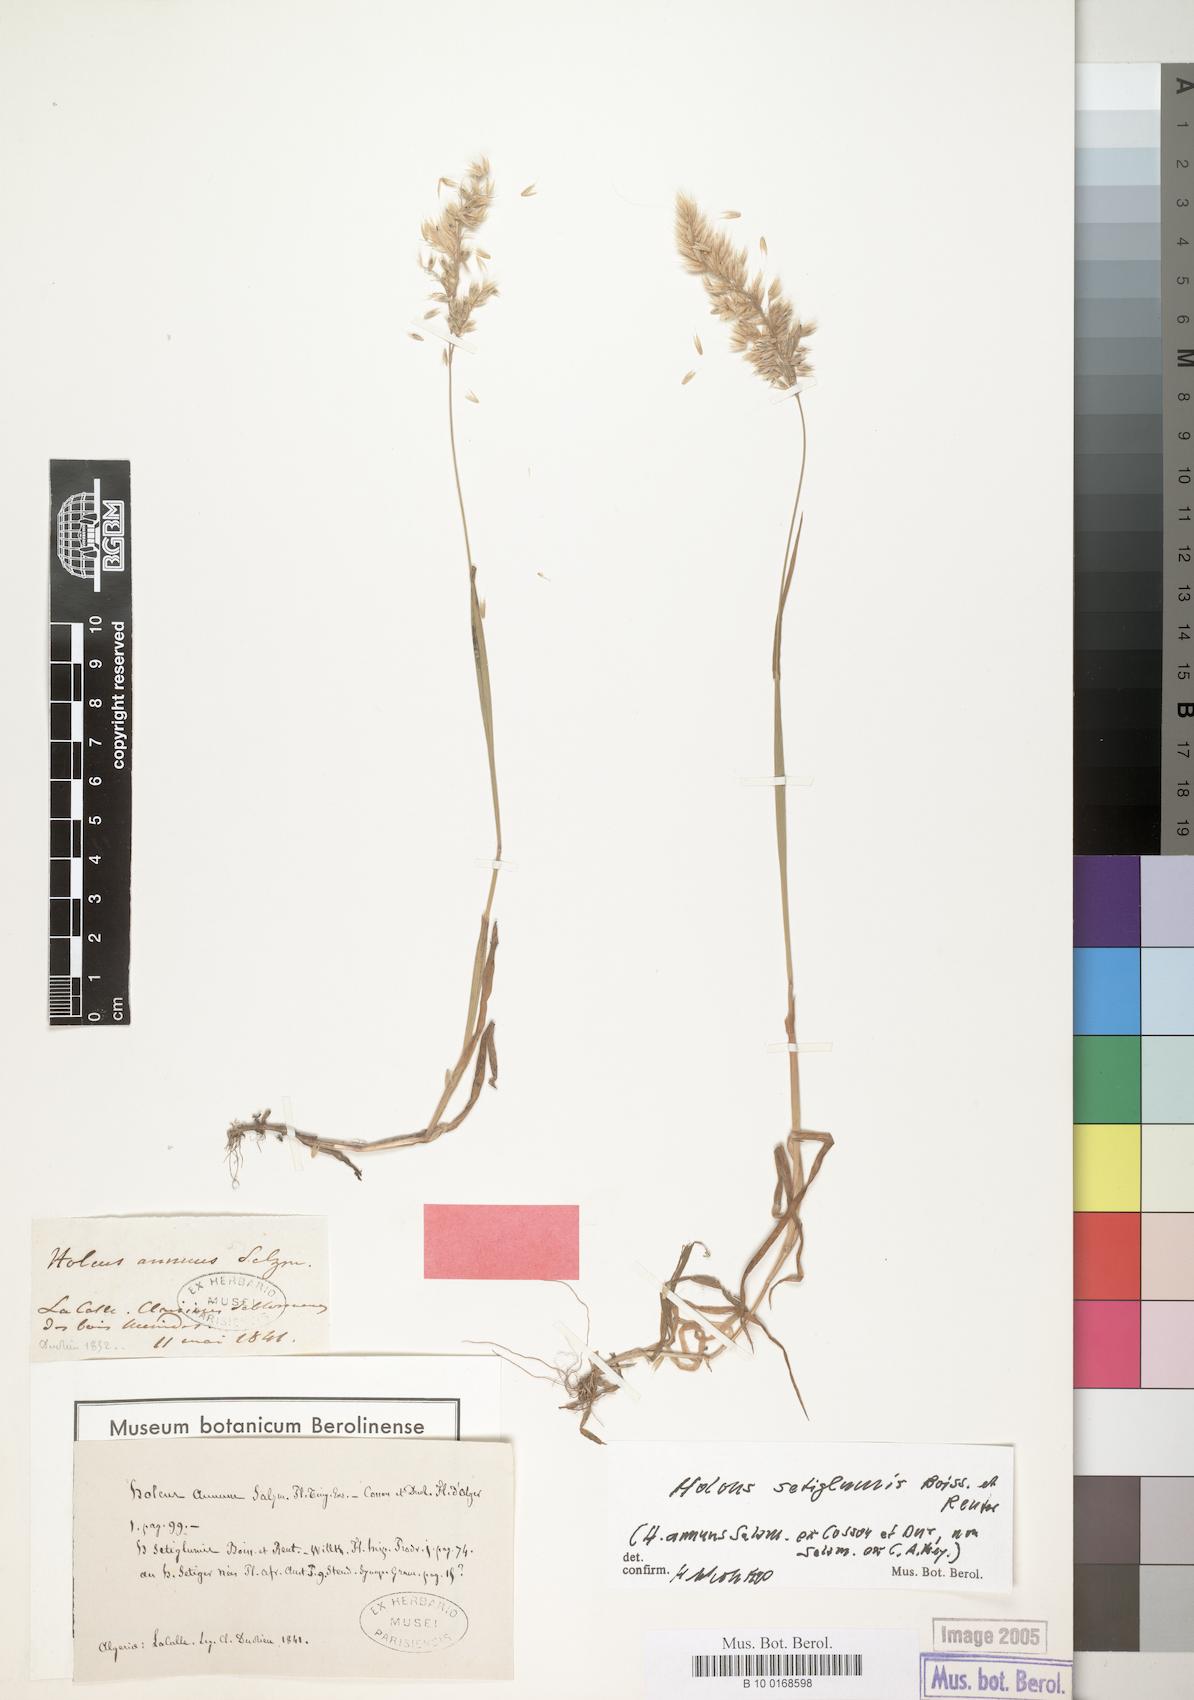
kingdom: Plantae
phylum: Tracheophyta
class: Liliopsida
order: Poales
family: Poaceae
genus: Holcus
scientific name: Holcus annuus
